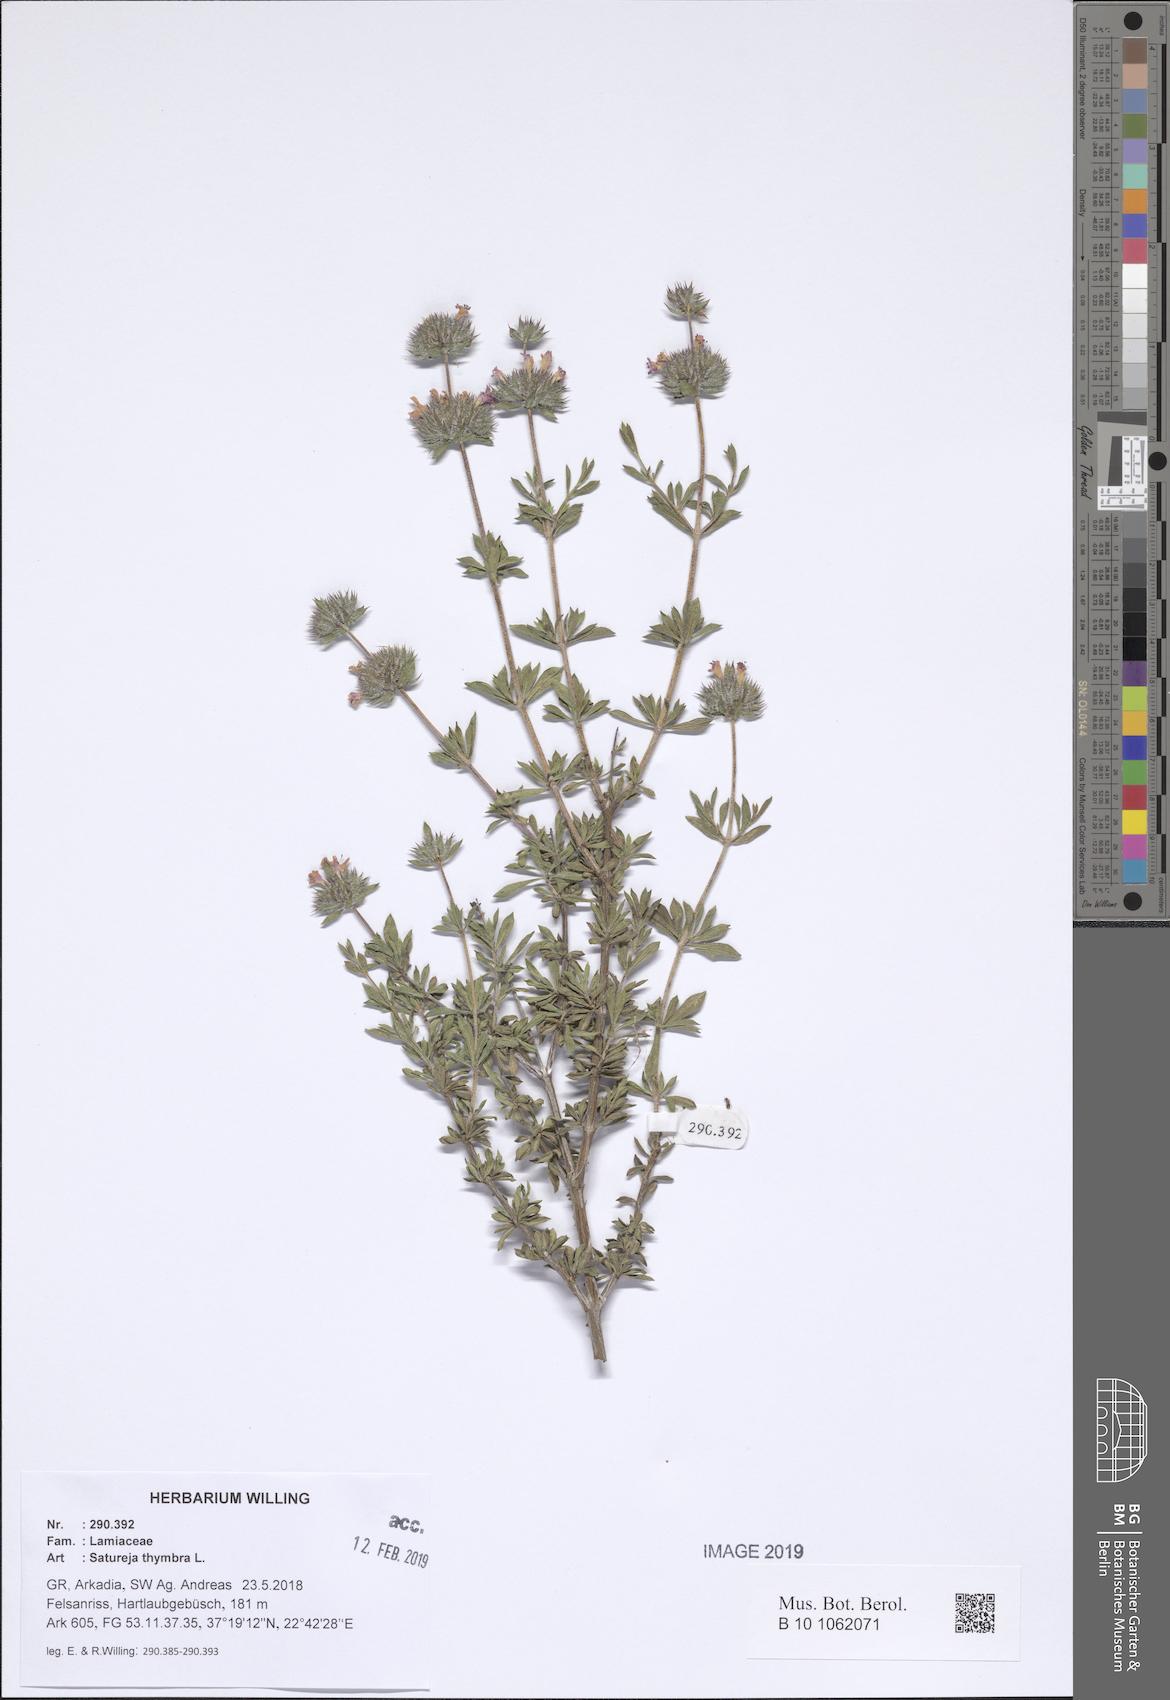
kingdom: Plantae
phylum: Tracheophyta
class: Magnoliopsida
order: Lamiales
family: Lamiaceae
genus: Satureja
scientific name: Satureja thymbra
